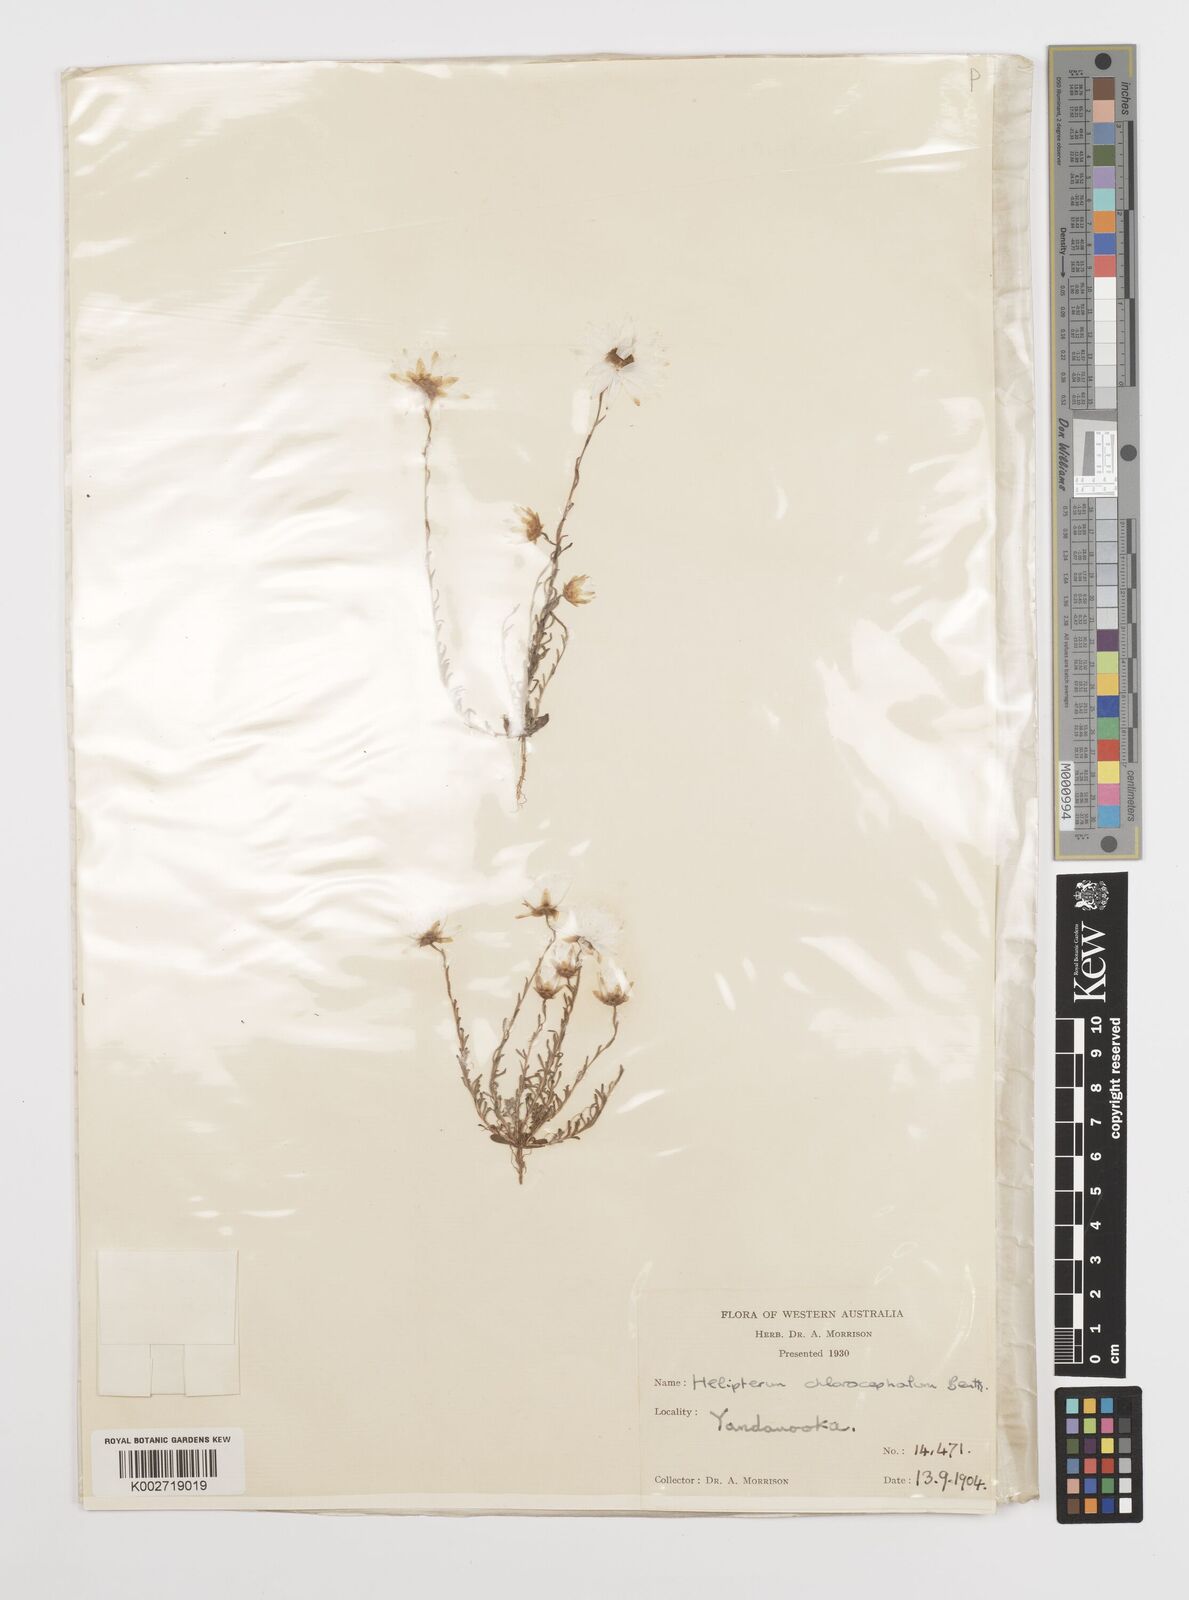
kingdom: Plantae
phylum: Tracheophyta
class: Magnoliopsida
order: Asterales
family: Asteraceae
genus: Rhodanthe
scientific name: Rhodanthe chlorocephala
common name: Rosy sunray
